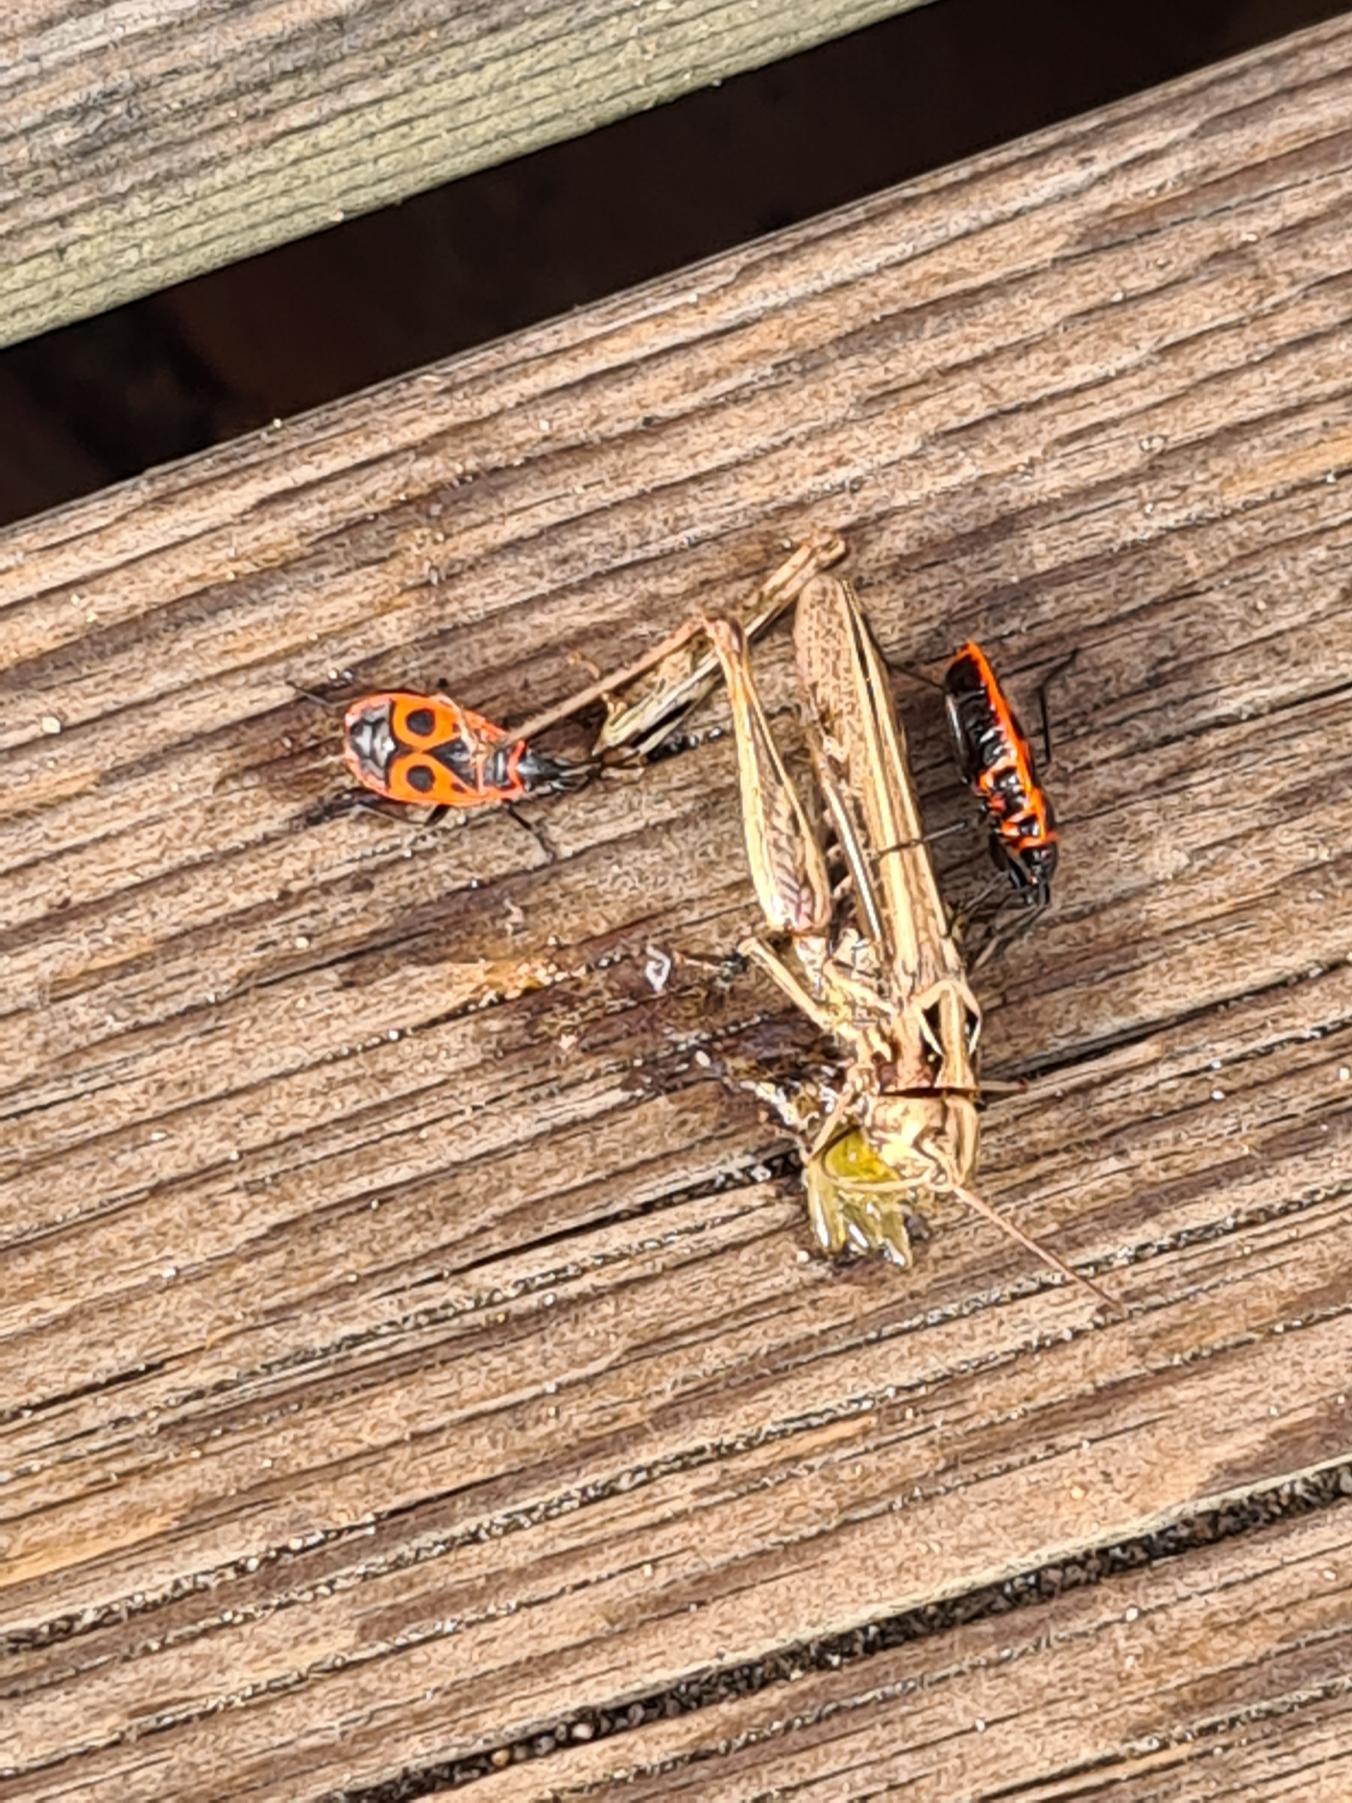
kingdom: Animalia
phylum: Arthropoda
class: Insecta
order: Hemiptera
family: Pyrrhocoridae
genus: Pyrrhocoris
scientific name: Pyrrhocoris apterus
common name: Ildtæge
